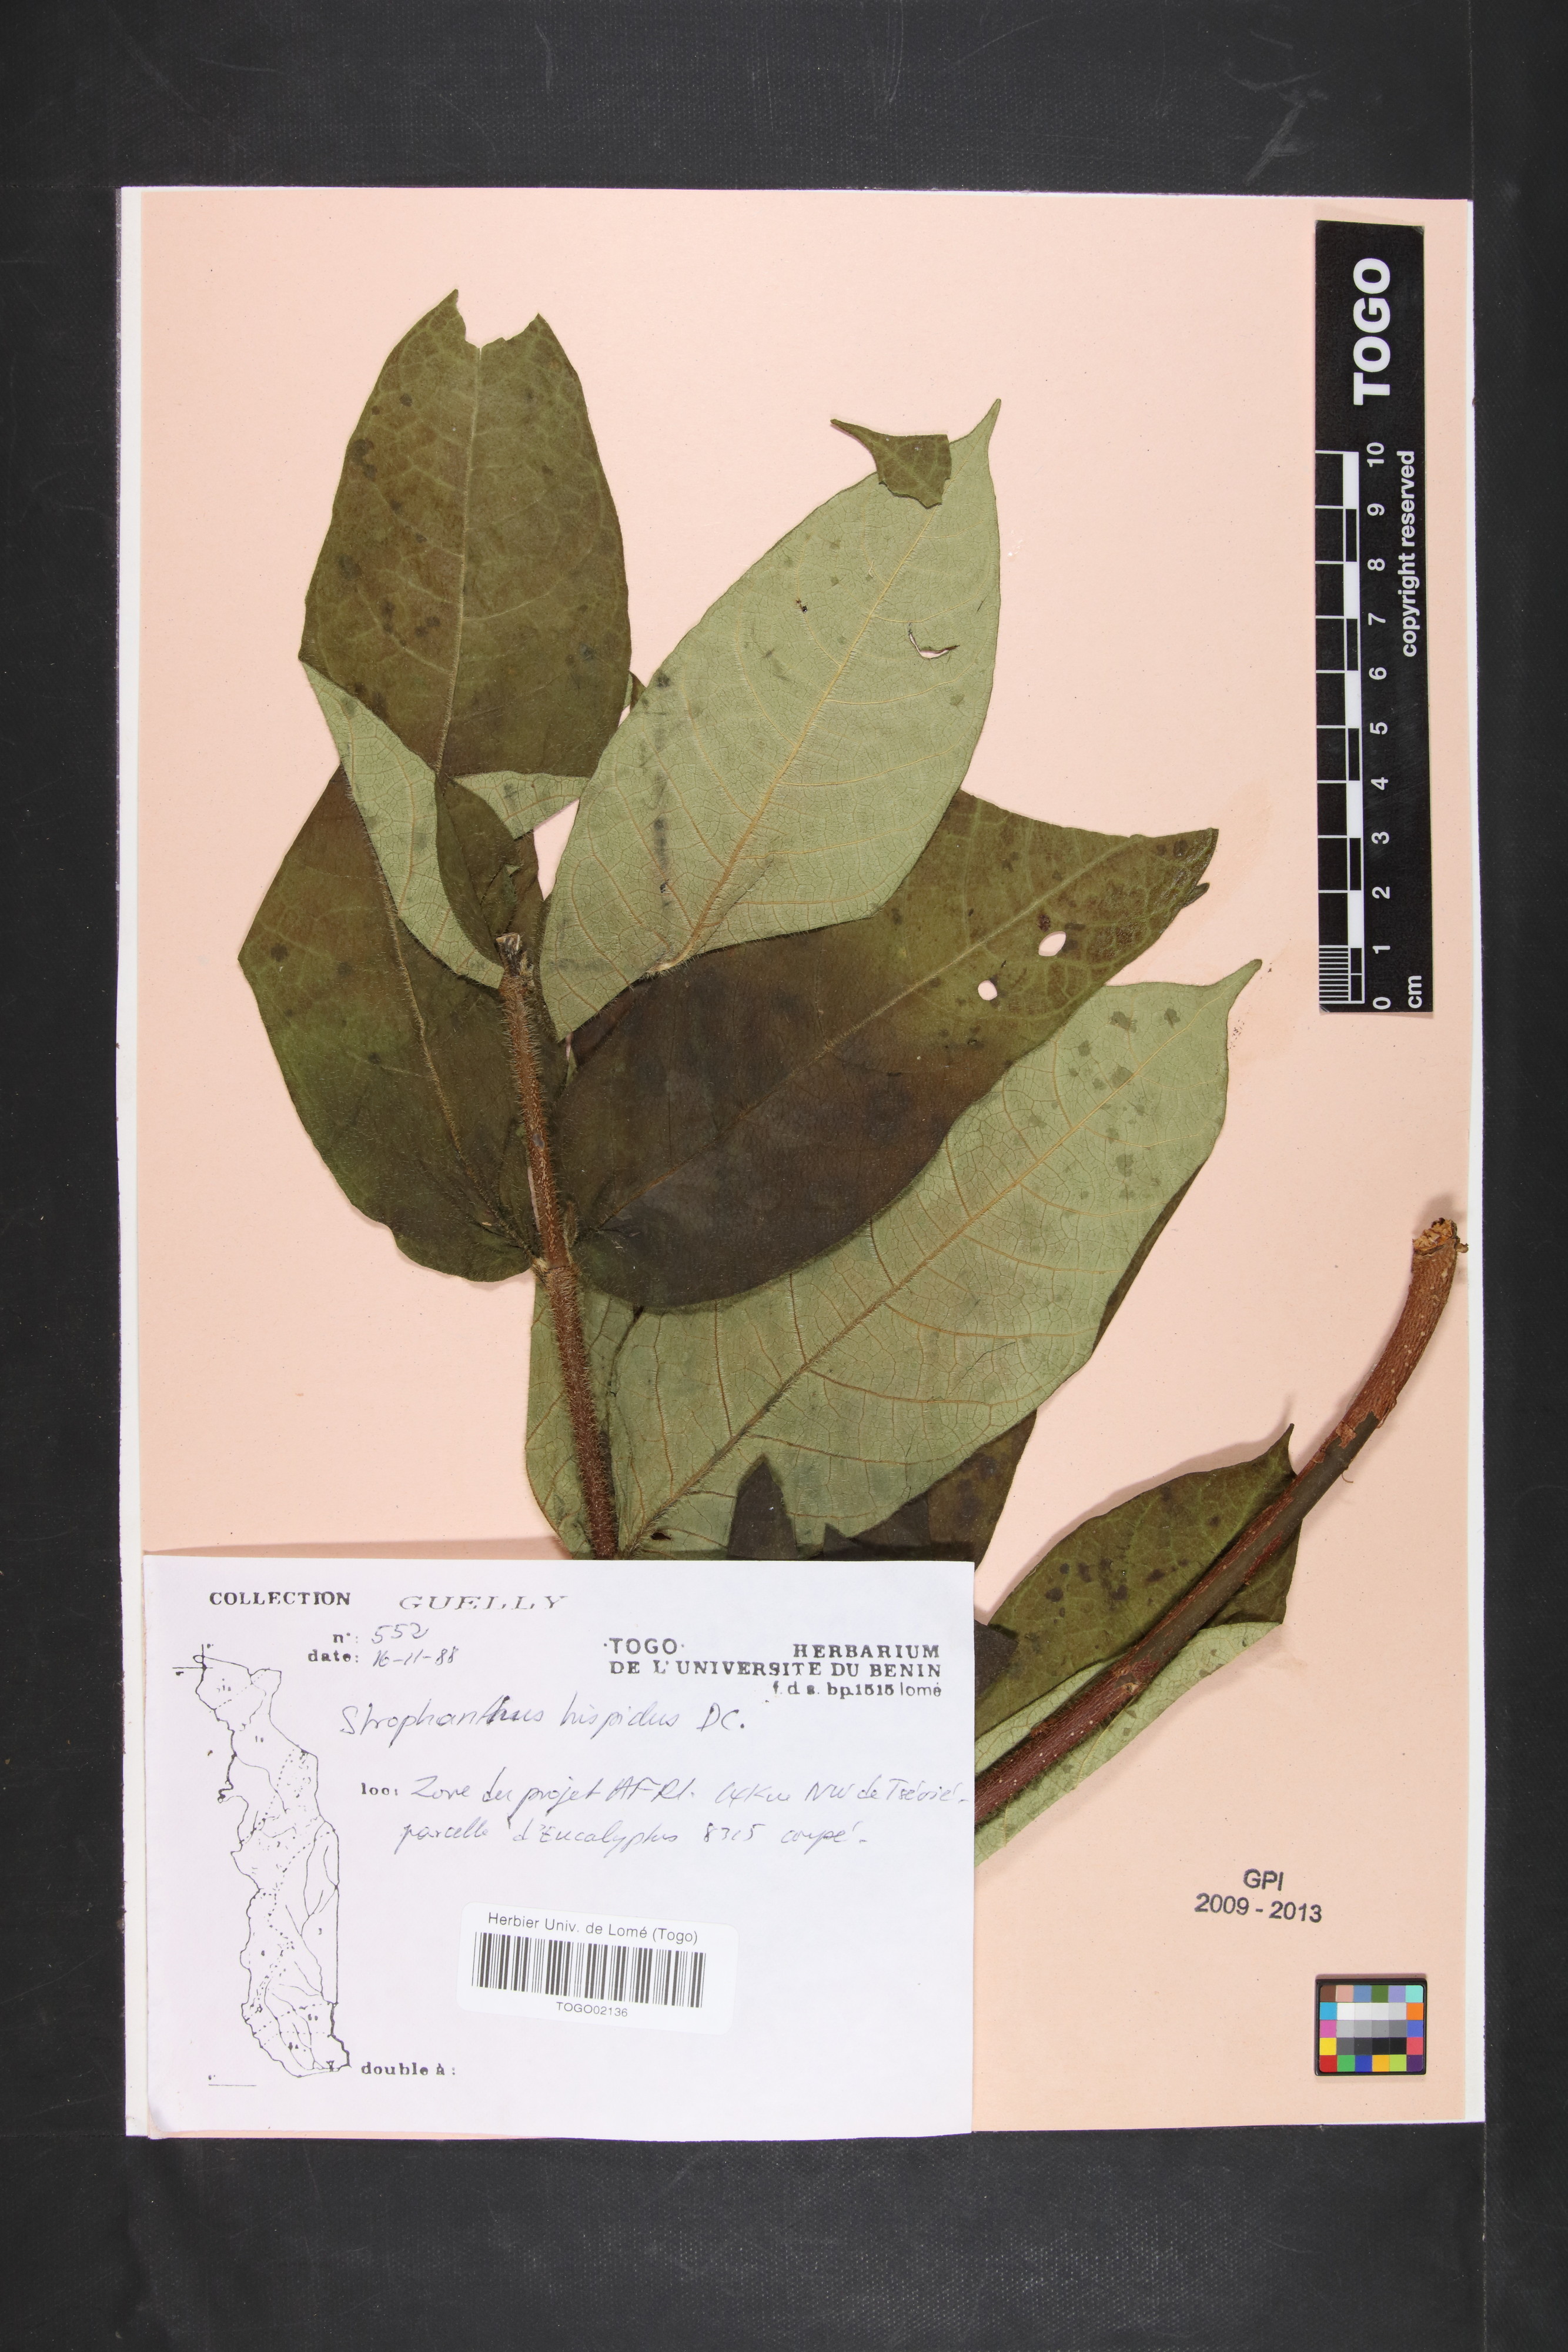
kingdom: Plantae
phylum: Tracheophyta
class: Magnoliopsida
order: Gentianales
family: Apocynaceae
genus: Strophanthus
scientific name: Strophanthus hispidus
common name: Hairy strophanthus
